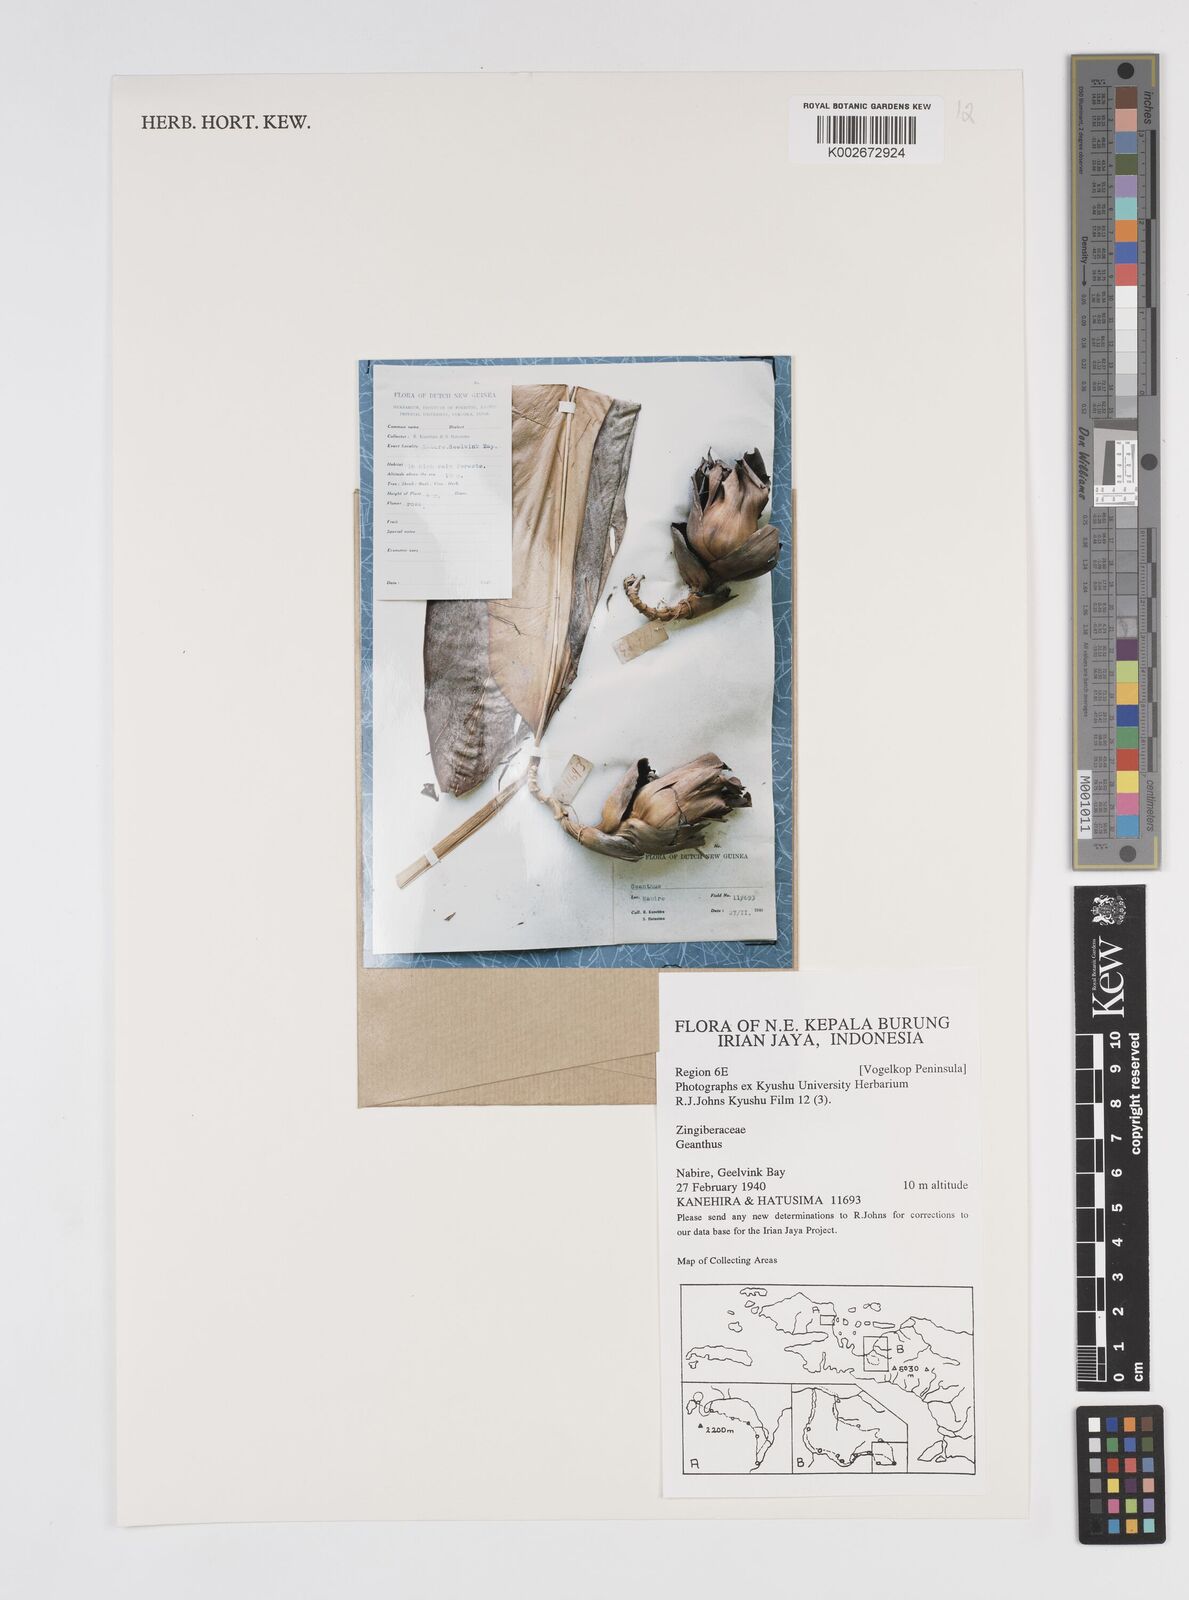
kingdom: Plantae
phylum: Tracheophyta
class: Liliopsida
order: Zingiberales
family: Zingiberaceae
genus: Etlingera
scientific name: Etlingera
